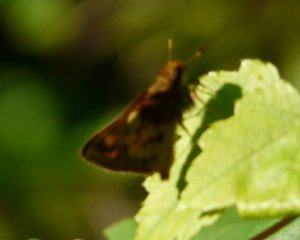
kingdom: Animalia
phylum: Arthropoda
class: Insecta
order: Lepidoptera
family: Hesperiidae
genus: Lon
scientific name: Lon zabulon
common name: Zabulon Skipper
